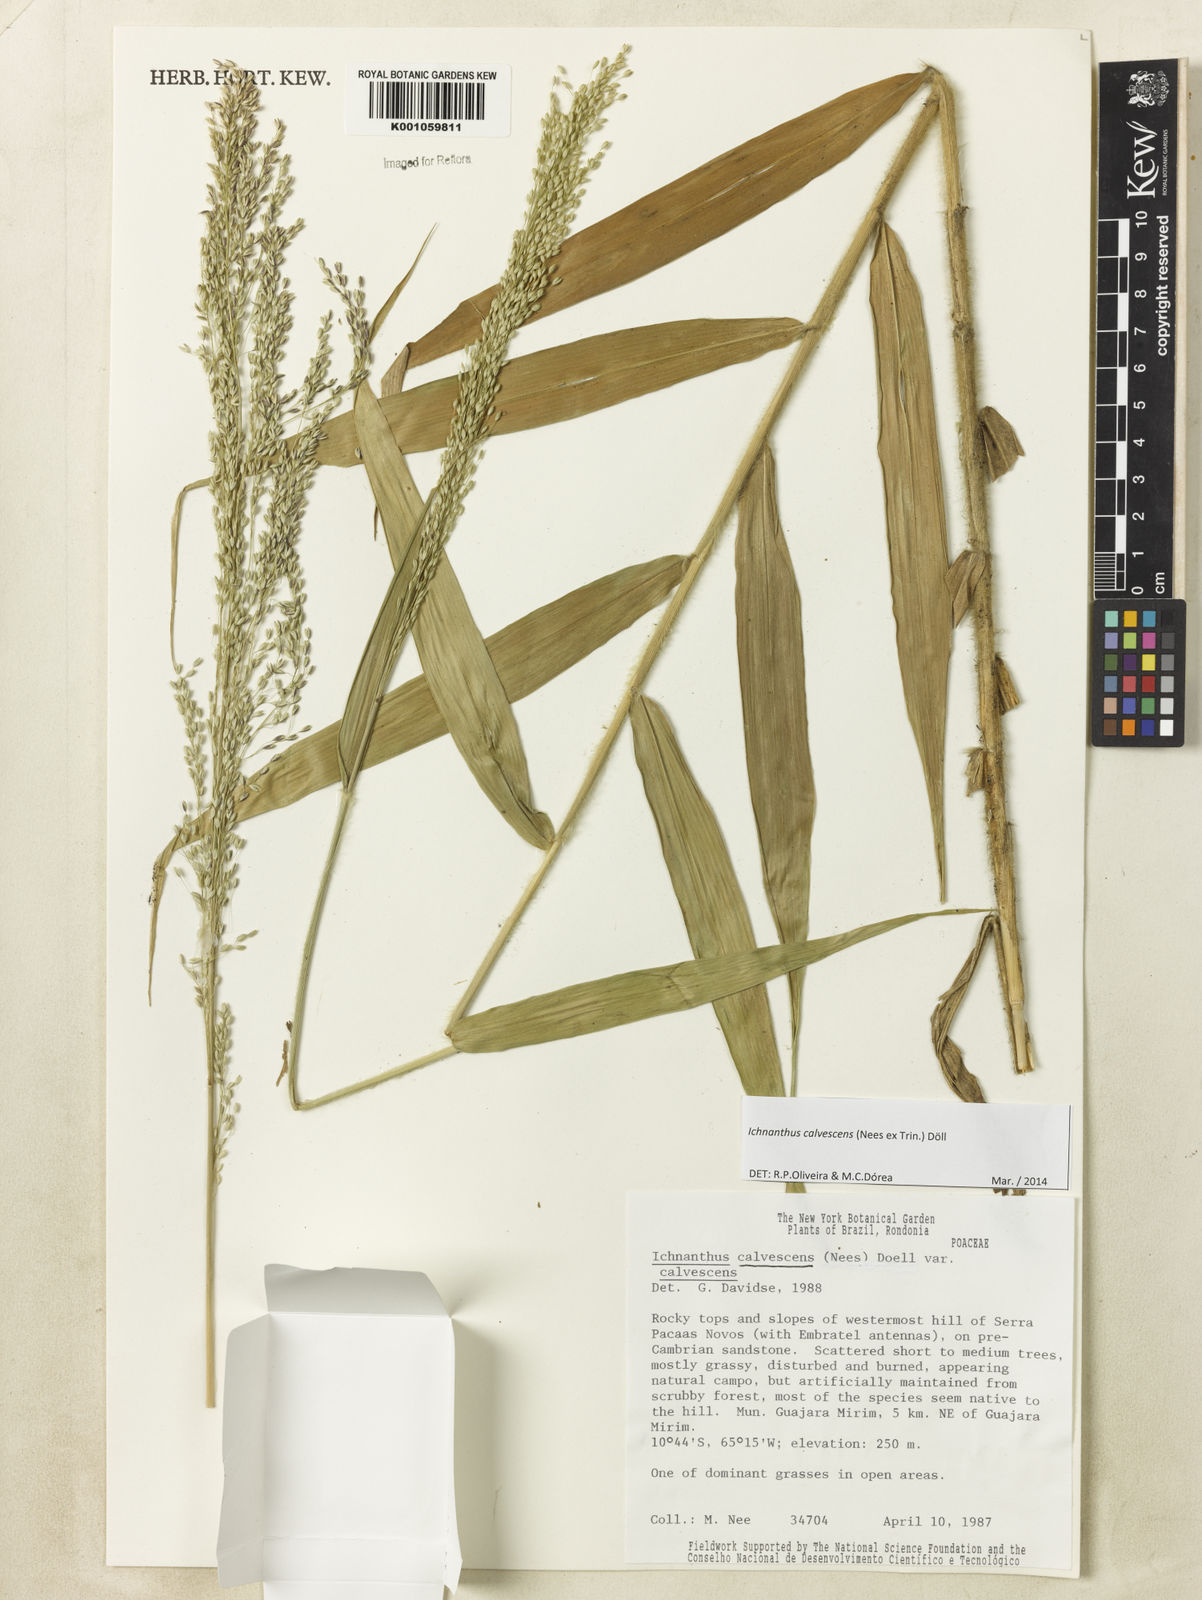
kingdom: Plantae
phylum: Tracheophyta
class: Liliopsida
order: Poales
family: Poaceae
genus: Ichnanthus
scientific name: Ichnanthus
